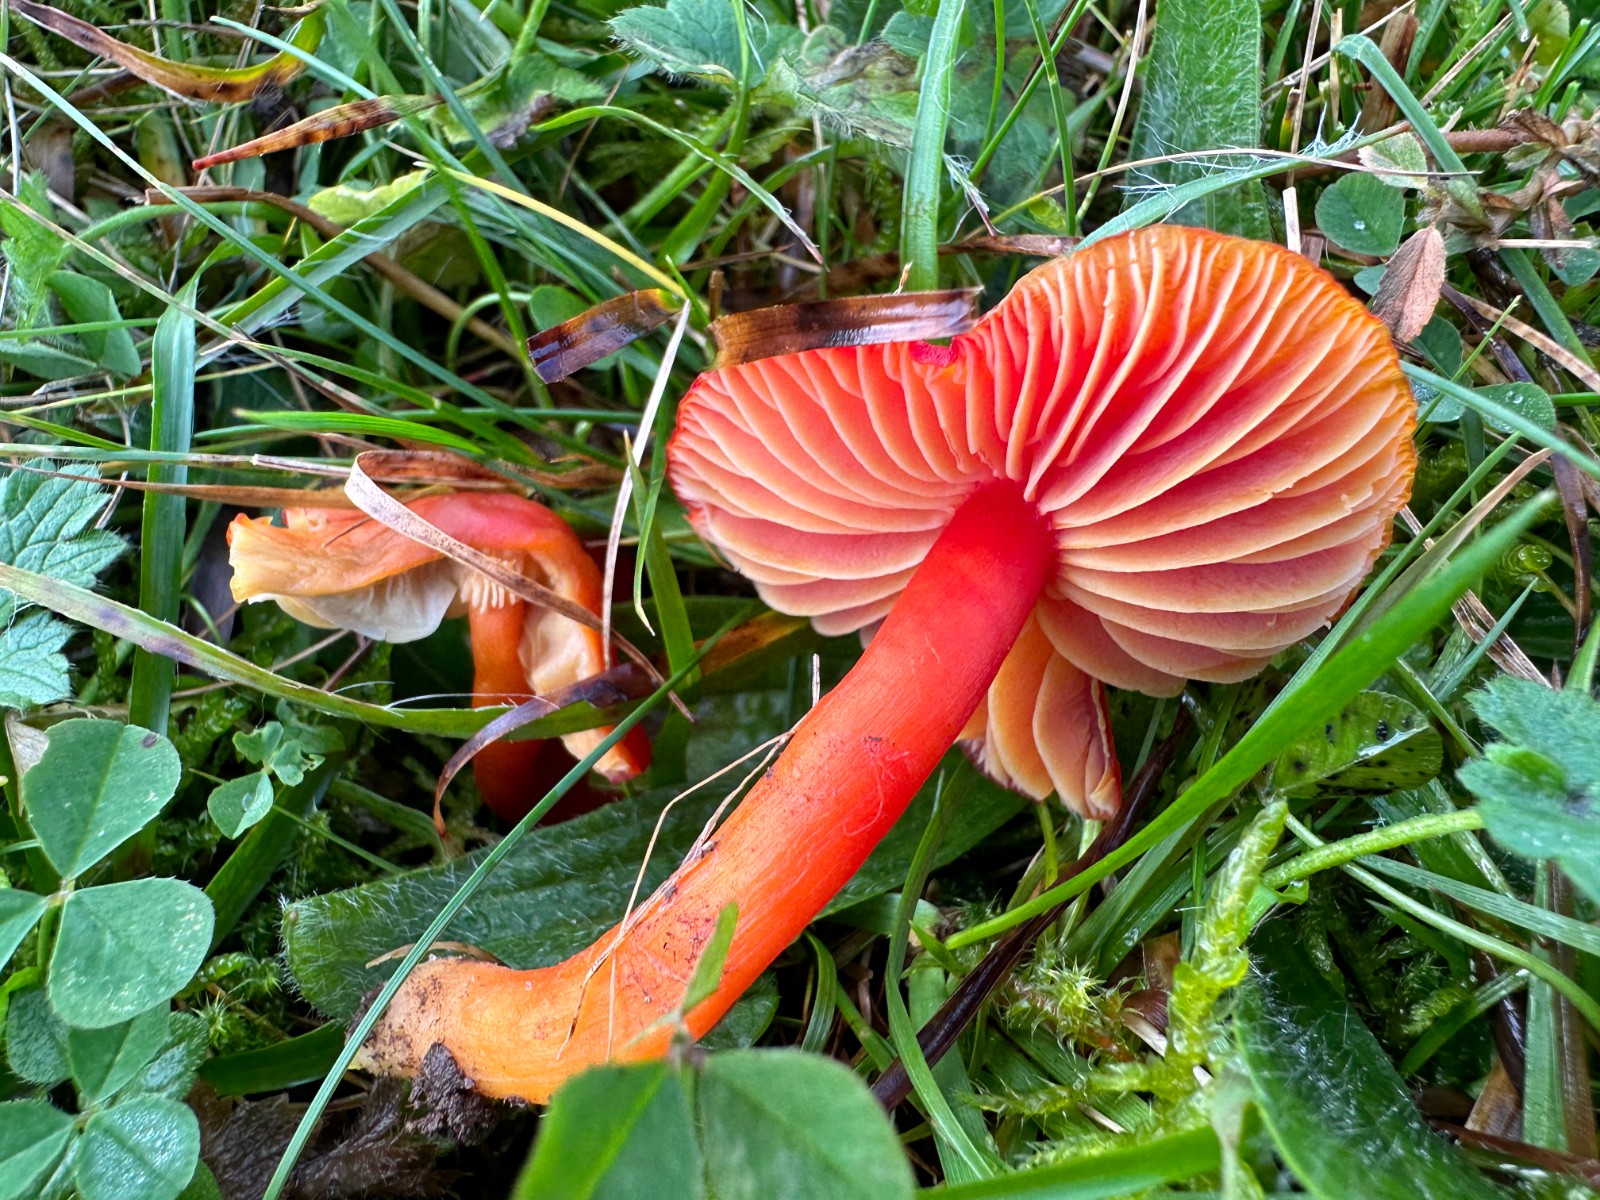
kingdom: Fungi
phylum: Basidiomycota
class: Agaricomycetes
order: Agaricales
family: Hygrophoraceae
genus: Hygrocybe
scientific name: Hygrocybe coccinea
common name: cinnober-vokshat
